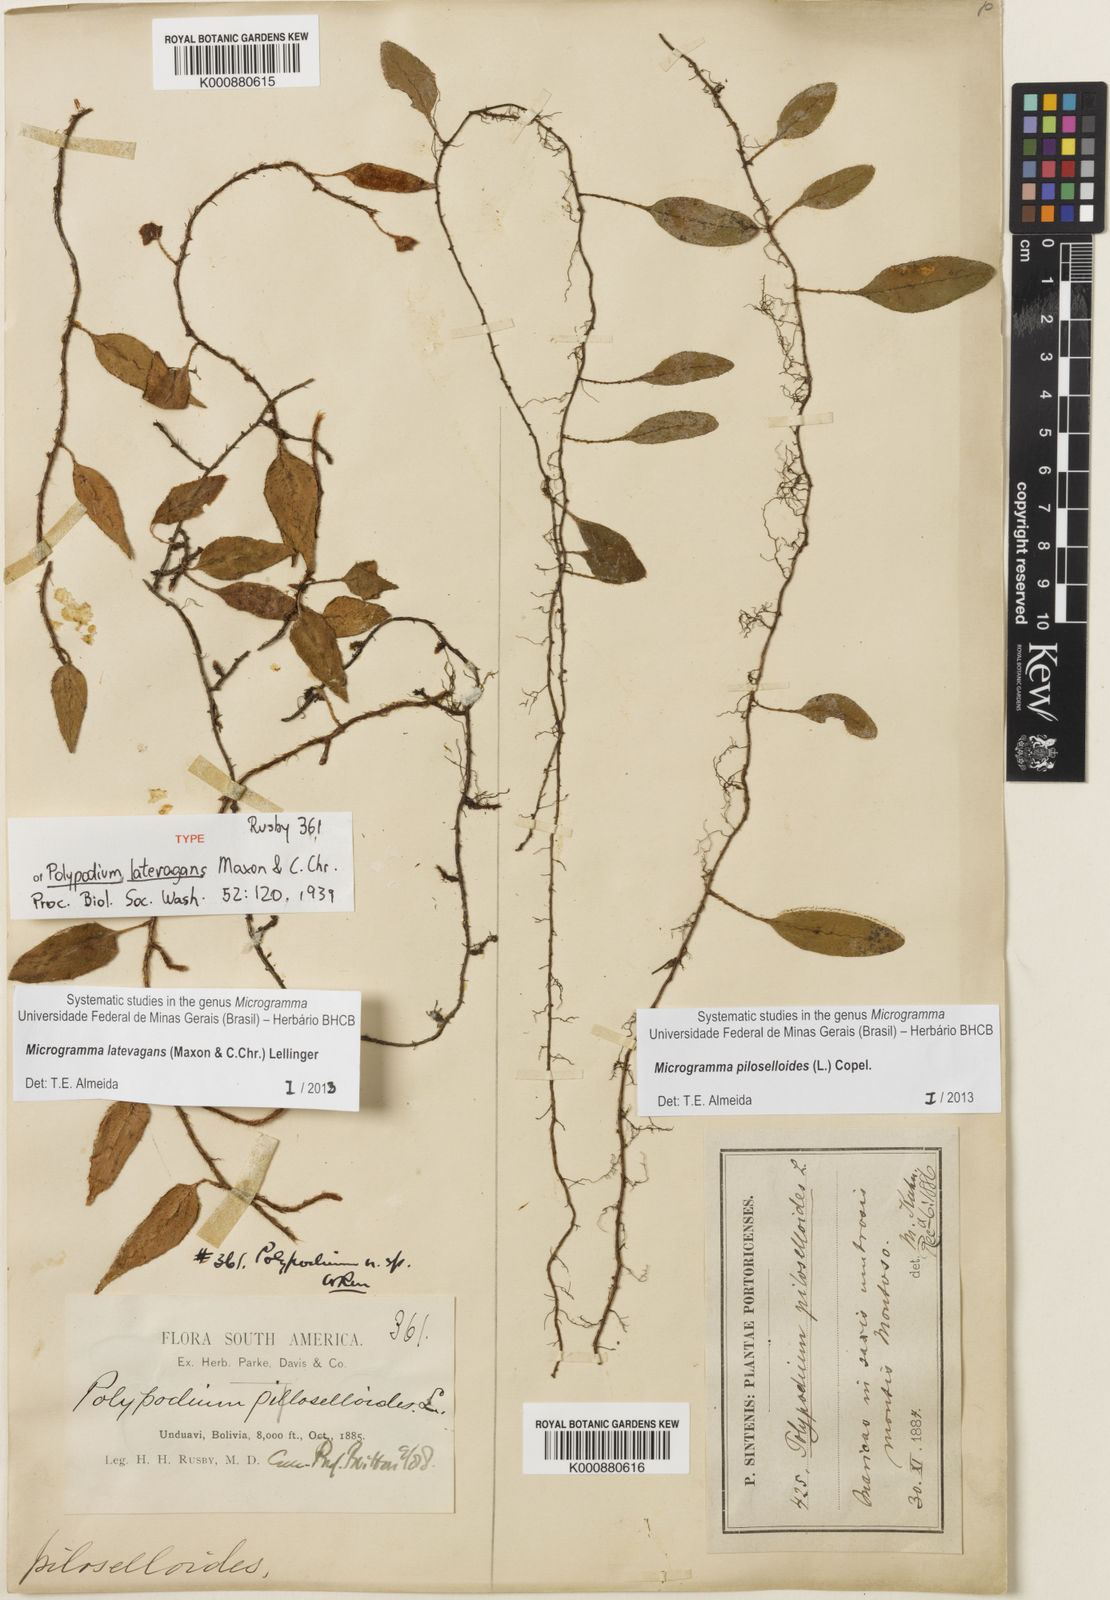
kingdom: Plantae
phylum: Tracheophyta
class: Polypodiopsida
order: Polypodiales
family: Polypodiaceae
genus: Microgramma
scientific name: Microgramma latevagans
